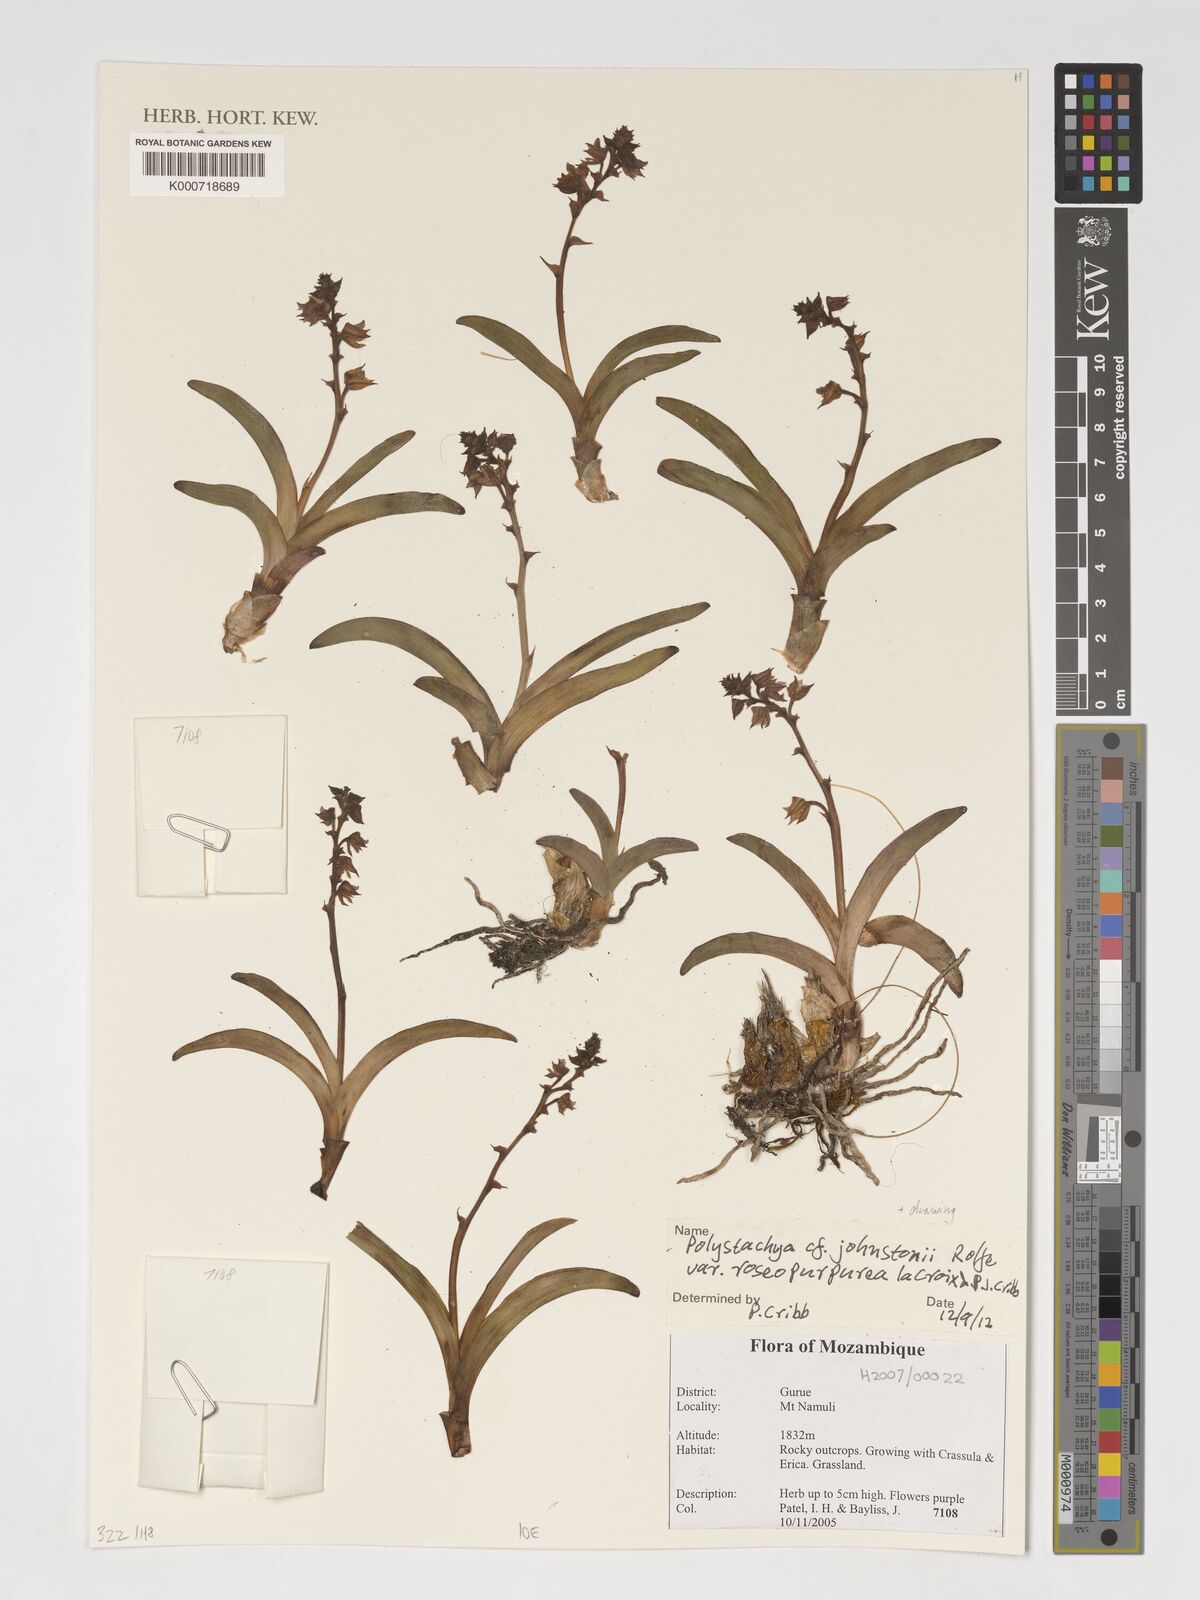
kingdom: Plantae
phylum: Tracheophyta
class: Liliopsida
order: Asparagales
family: Orchidaceae
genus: Polystachya
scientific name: Polystachya johnstonii
